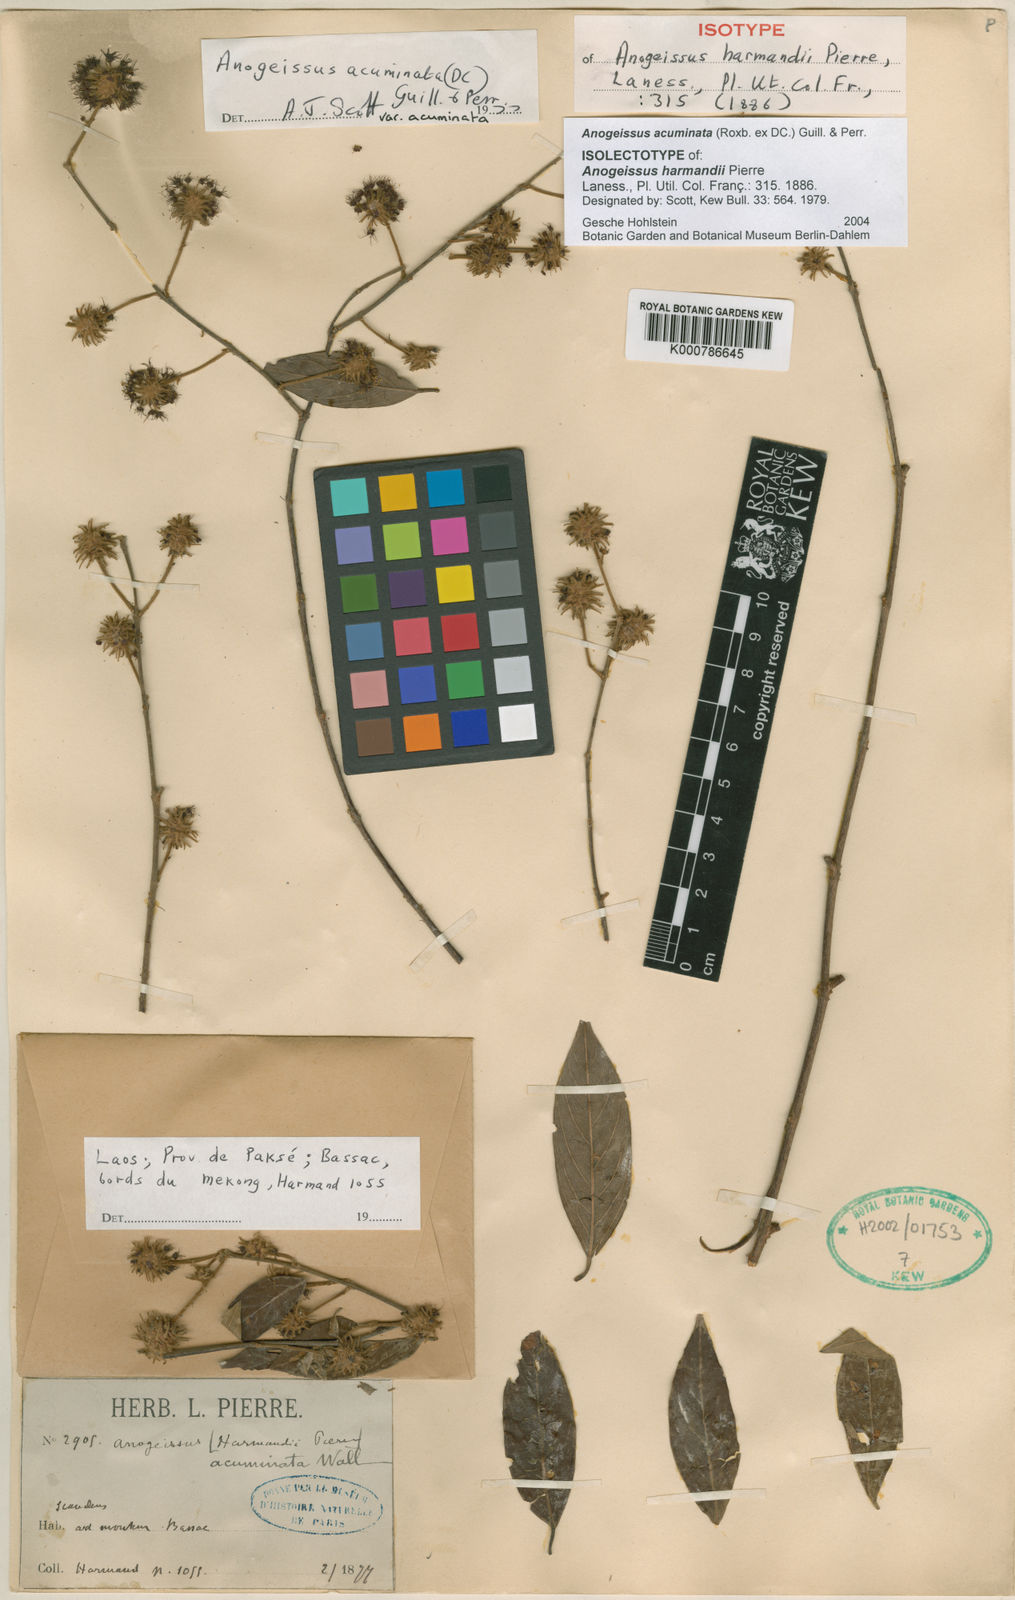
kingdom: Plantae
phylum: Tracheophyta
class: Magnoliopsida
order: Myrtales
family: Combretaceae
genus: Terminalia
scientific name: Terminalia phillyreifolia
